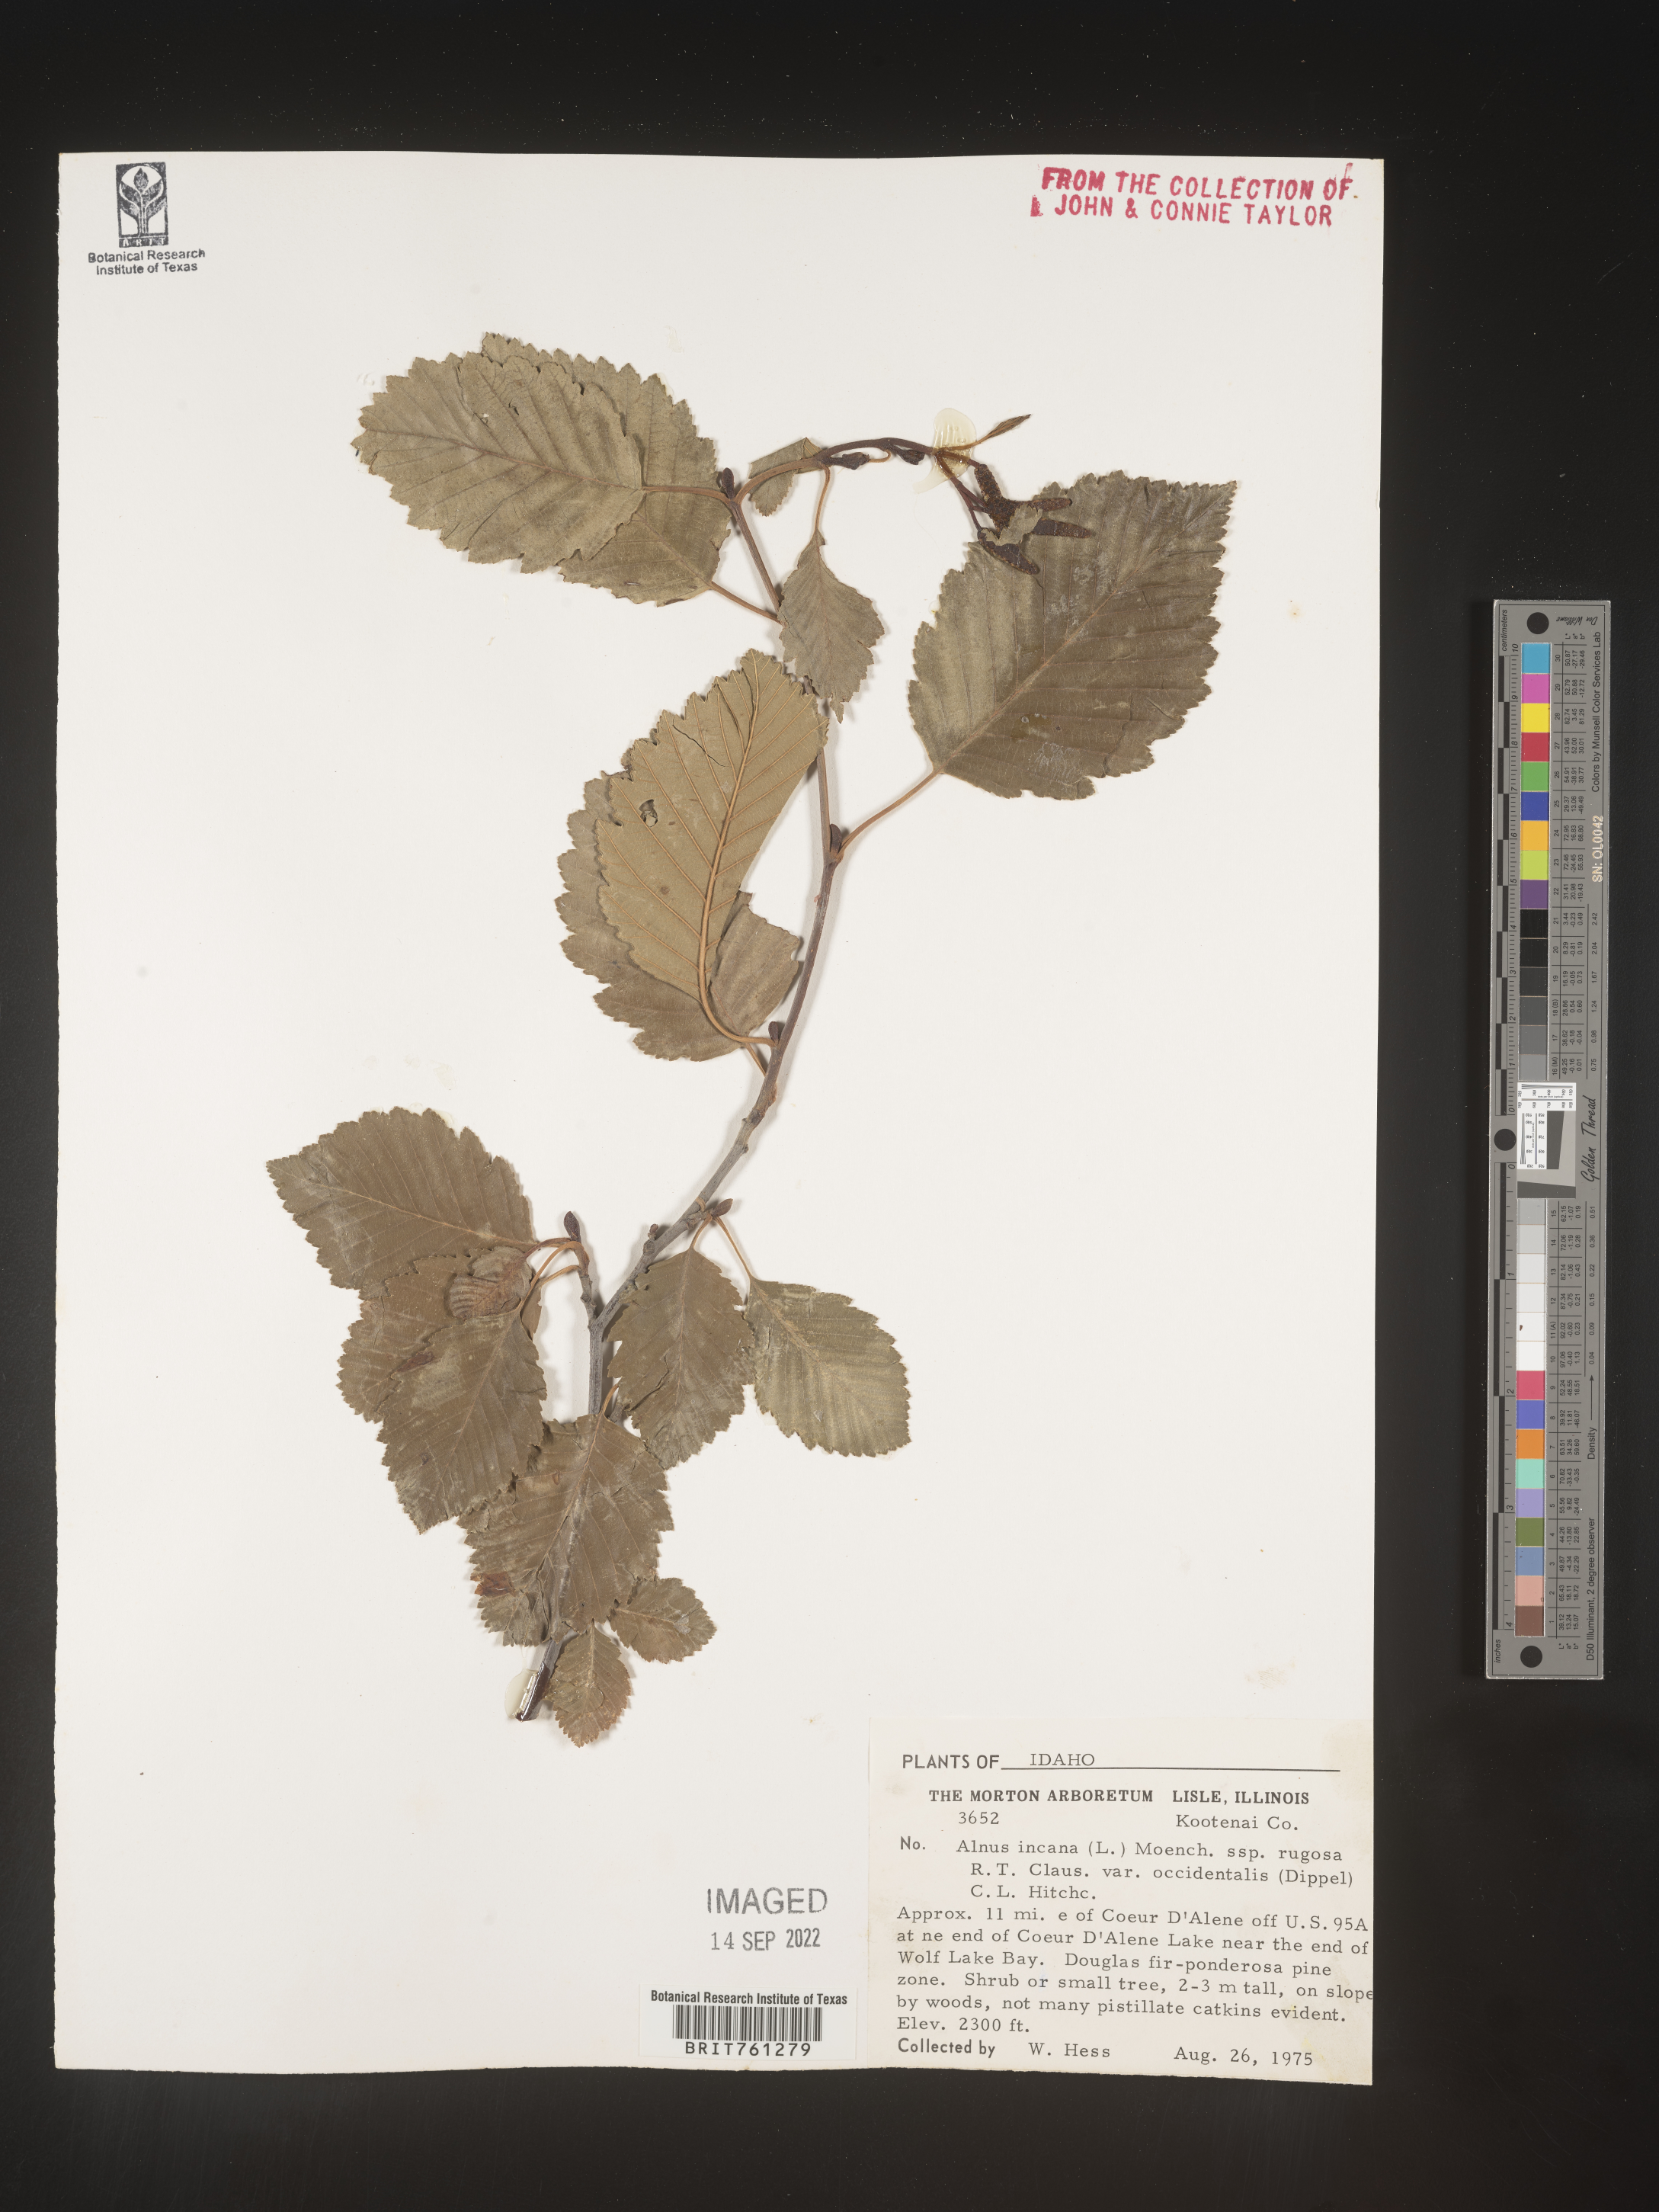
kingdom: Plantae
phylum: Tracheophyta
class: Magnoliopsida
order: Fagales
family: Betulaceae
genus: Alnus
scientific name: Alnus incana
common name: Grey alder
